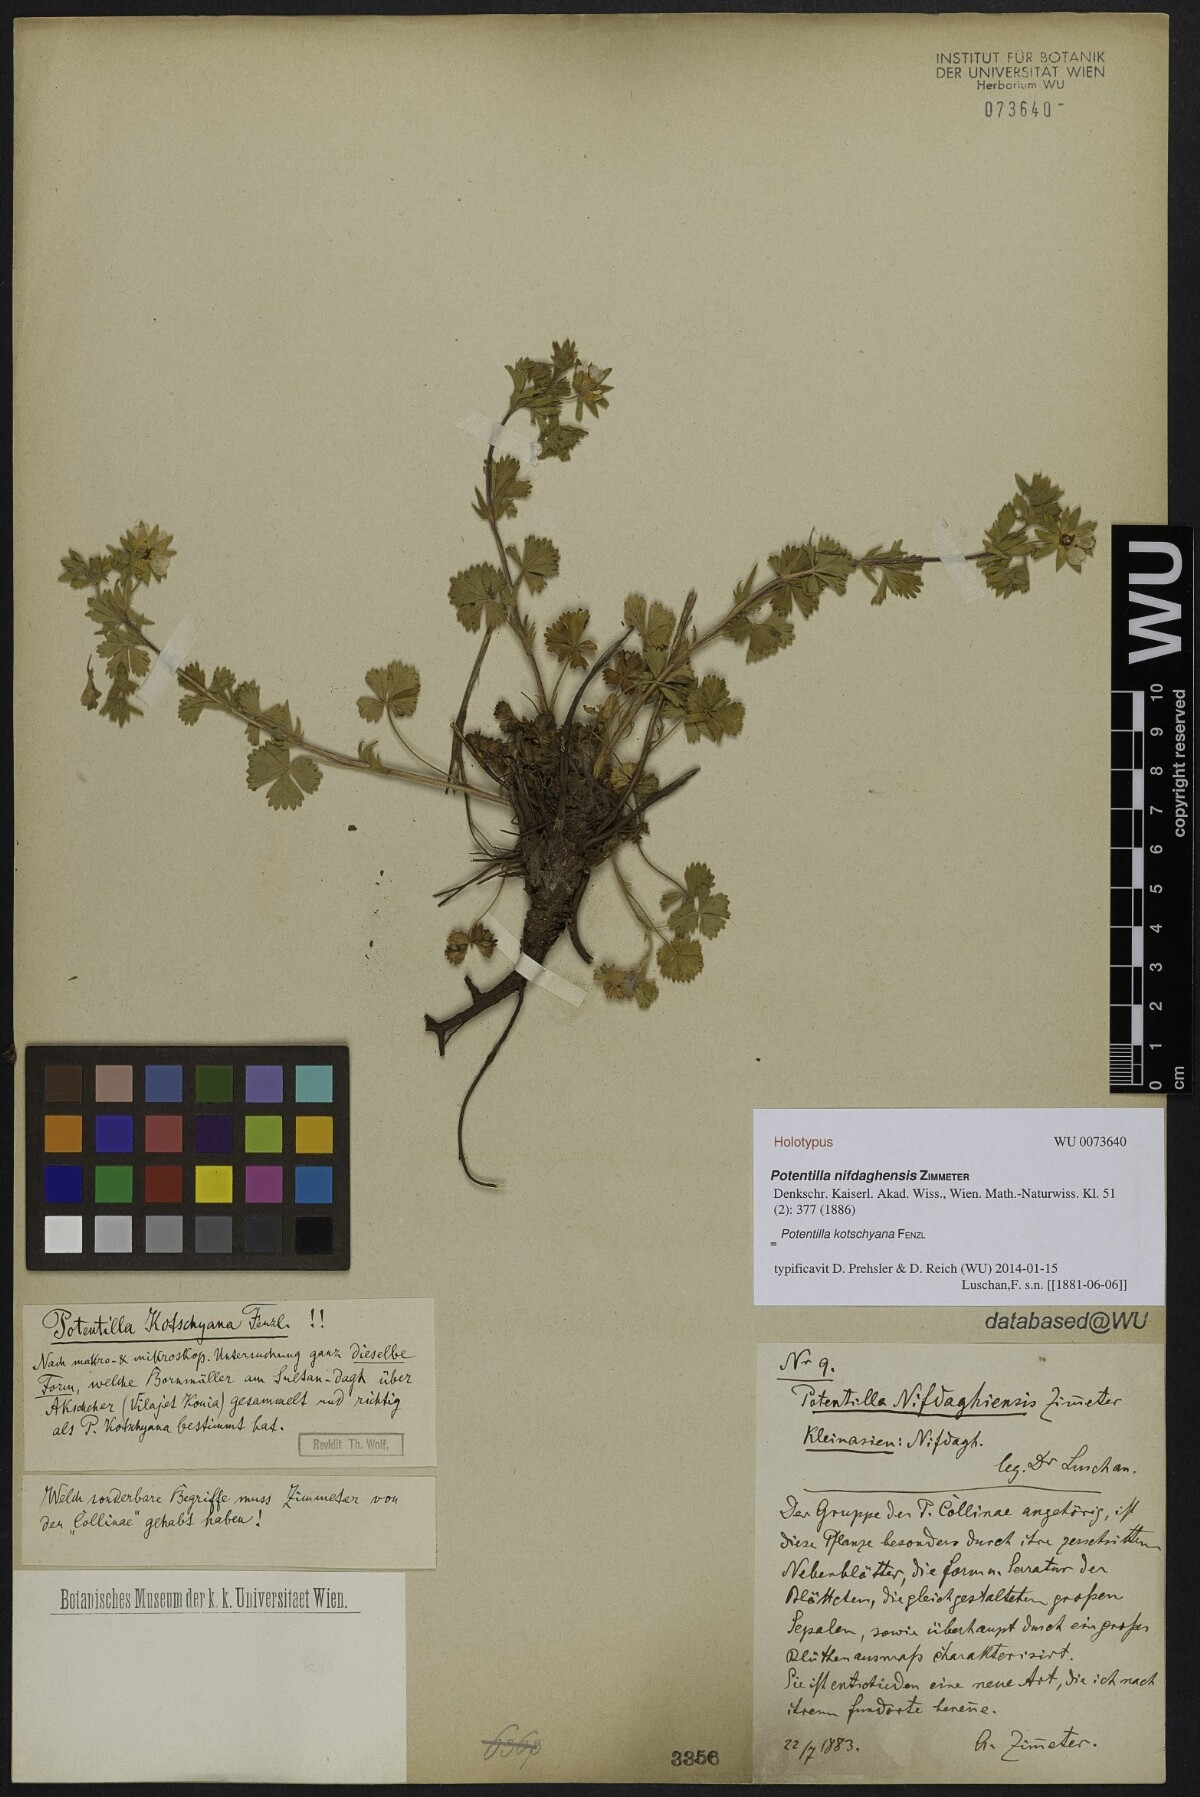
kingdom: Plantae
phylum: Tracheophyta
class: Magnoliopsida
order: Rosales
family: Rosaceae
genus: Potentilla
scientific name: Potentilla kotschyana
